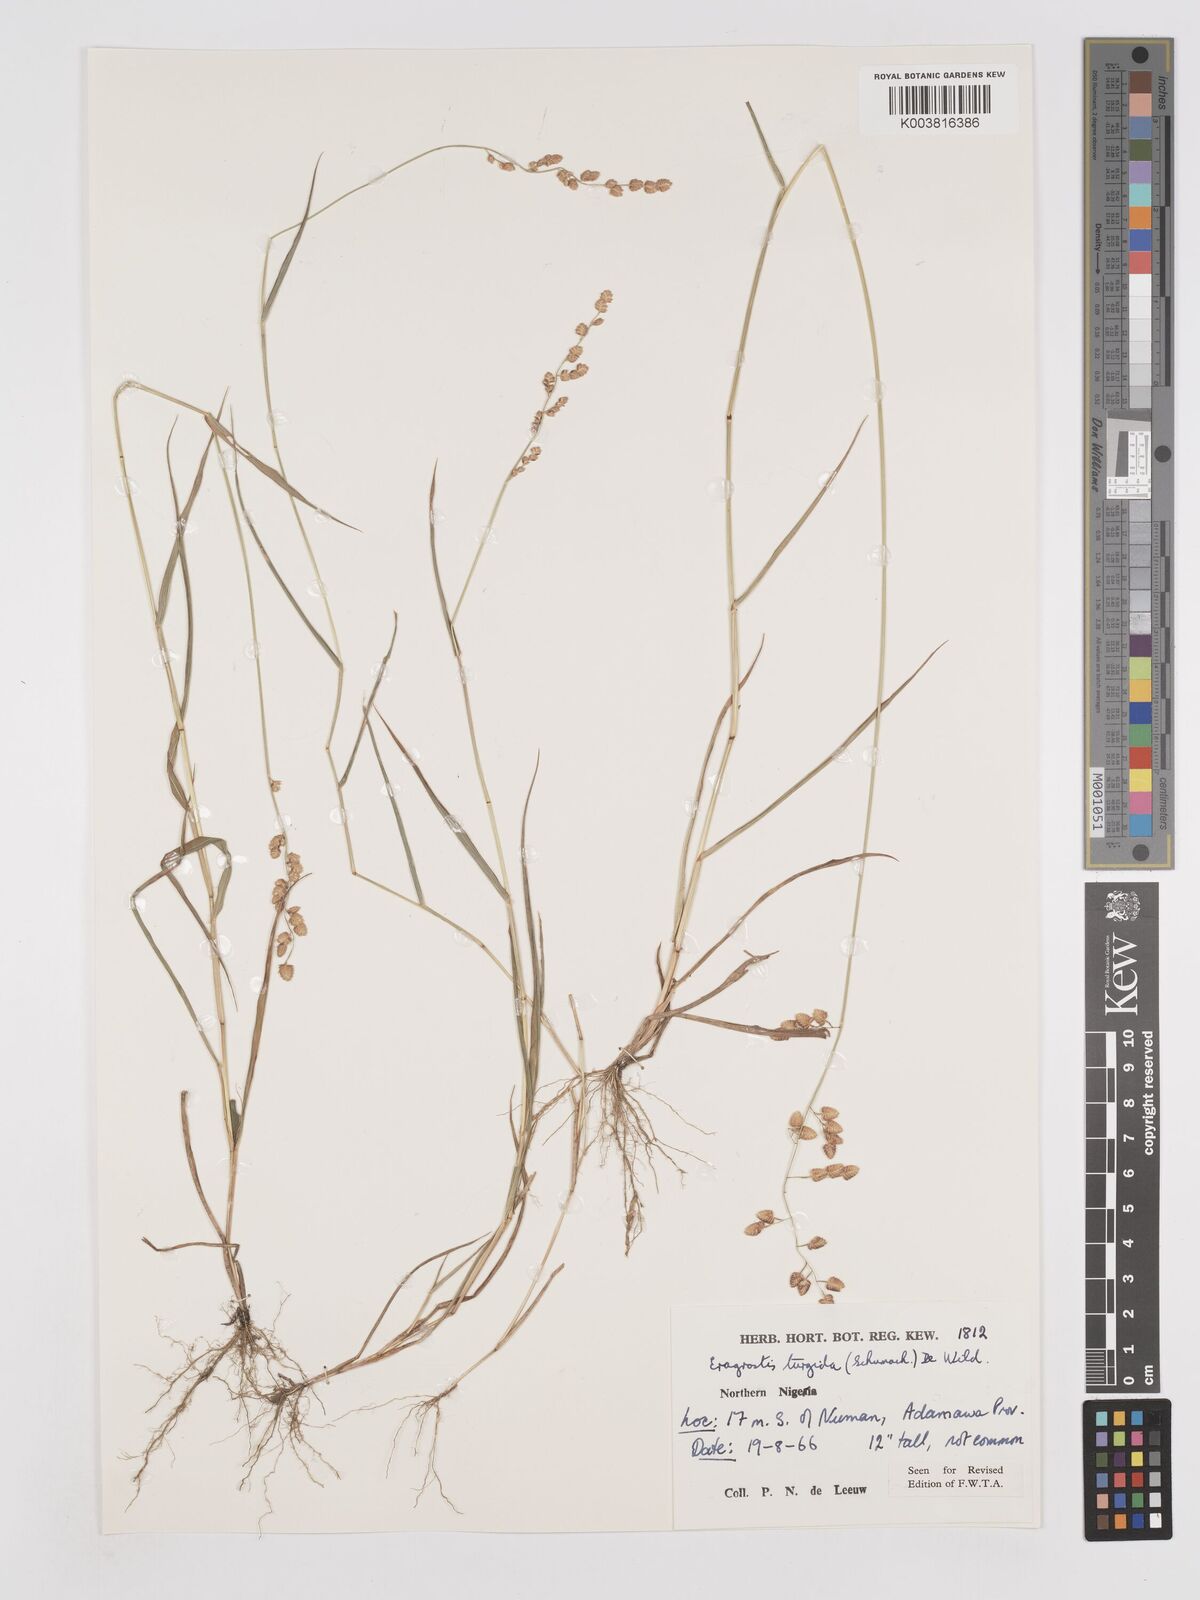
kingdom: Plantae
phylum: Tracheophyta
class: Liliopsida
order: Poales
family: Poaceae
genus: Eragrostis
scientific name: Eragrostis turgida
